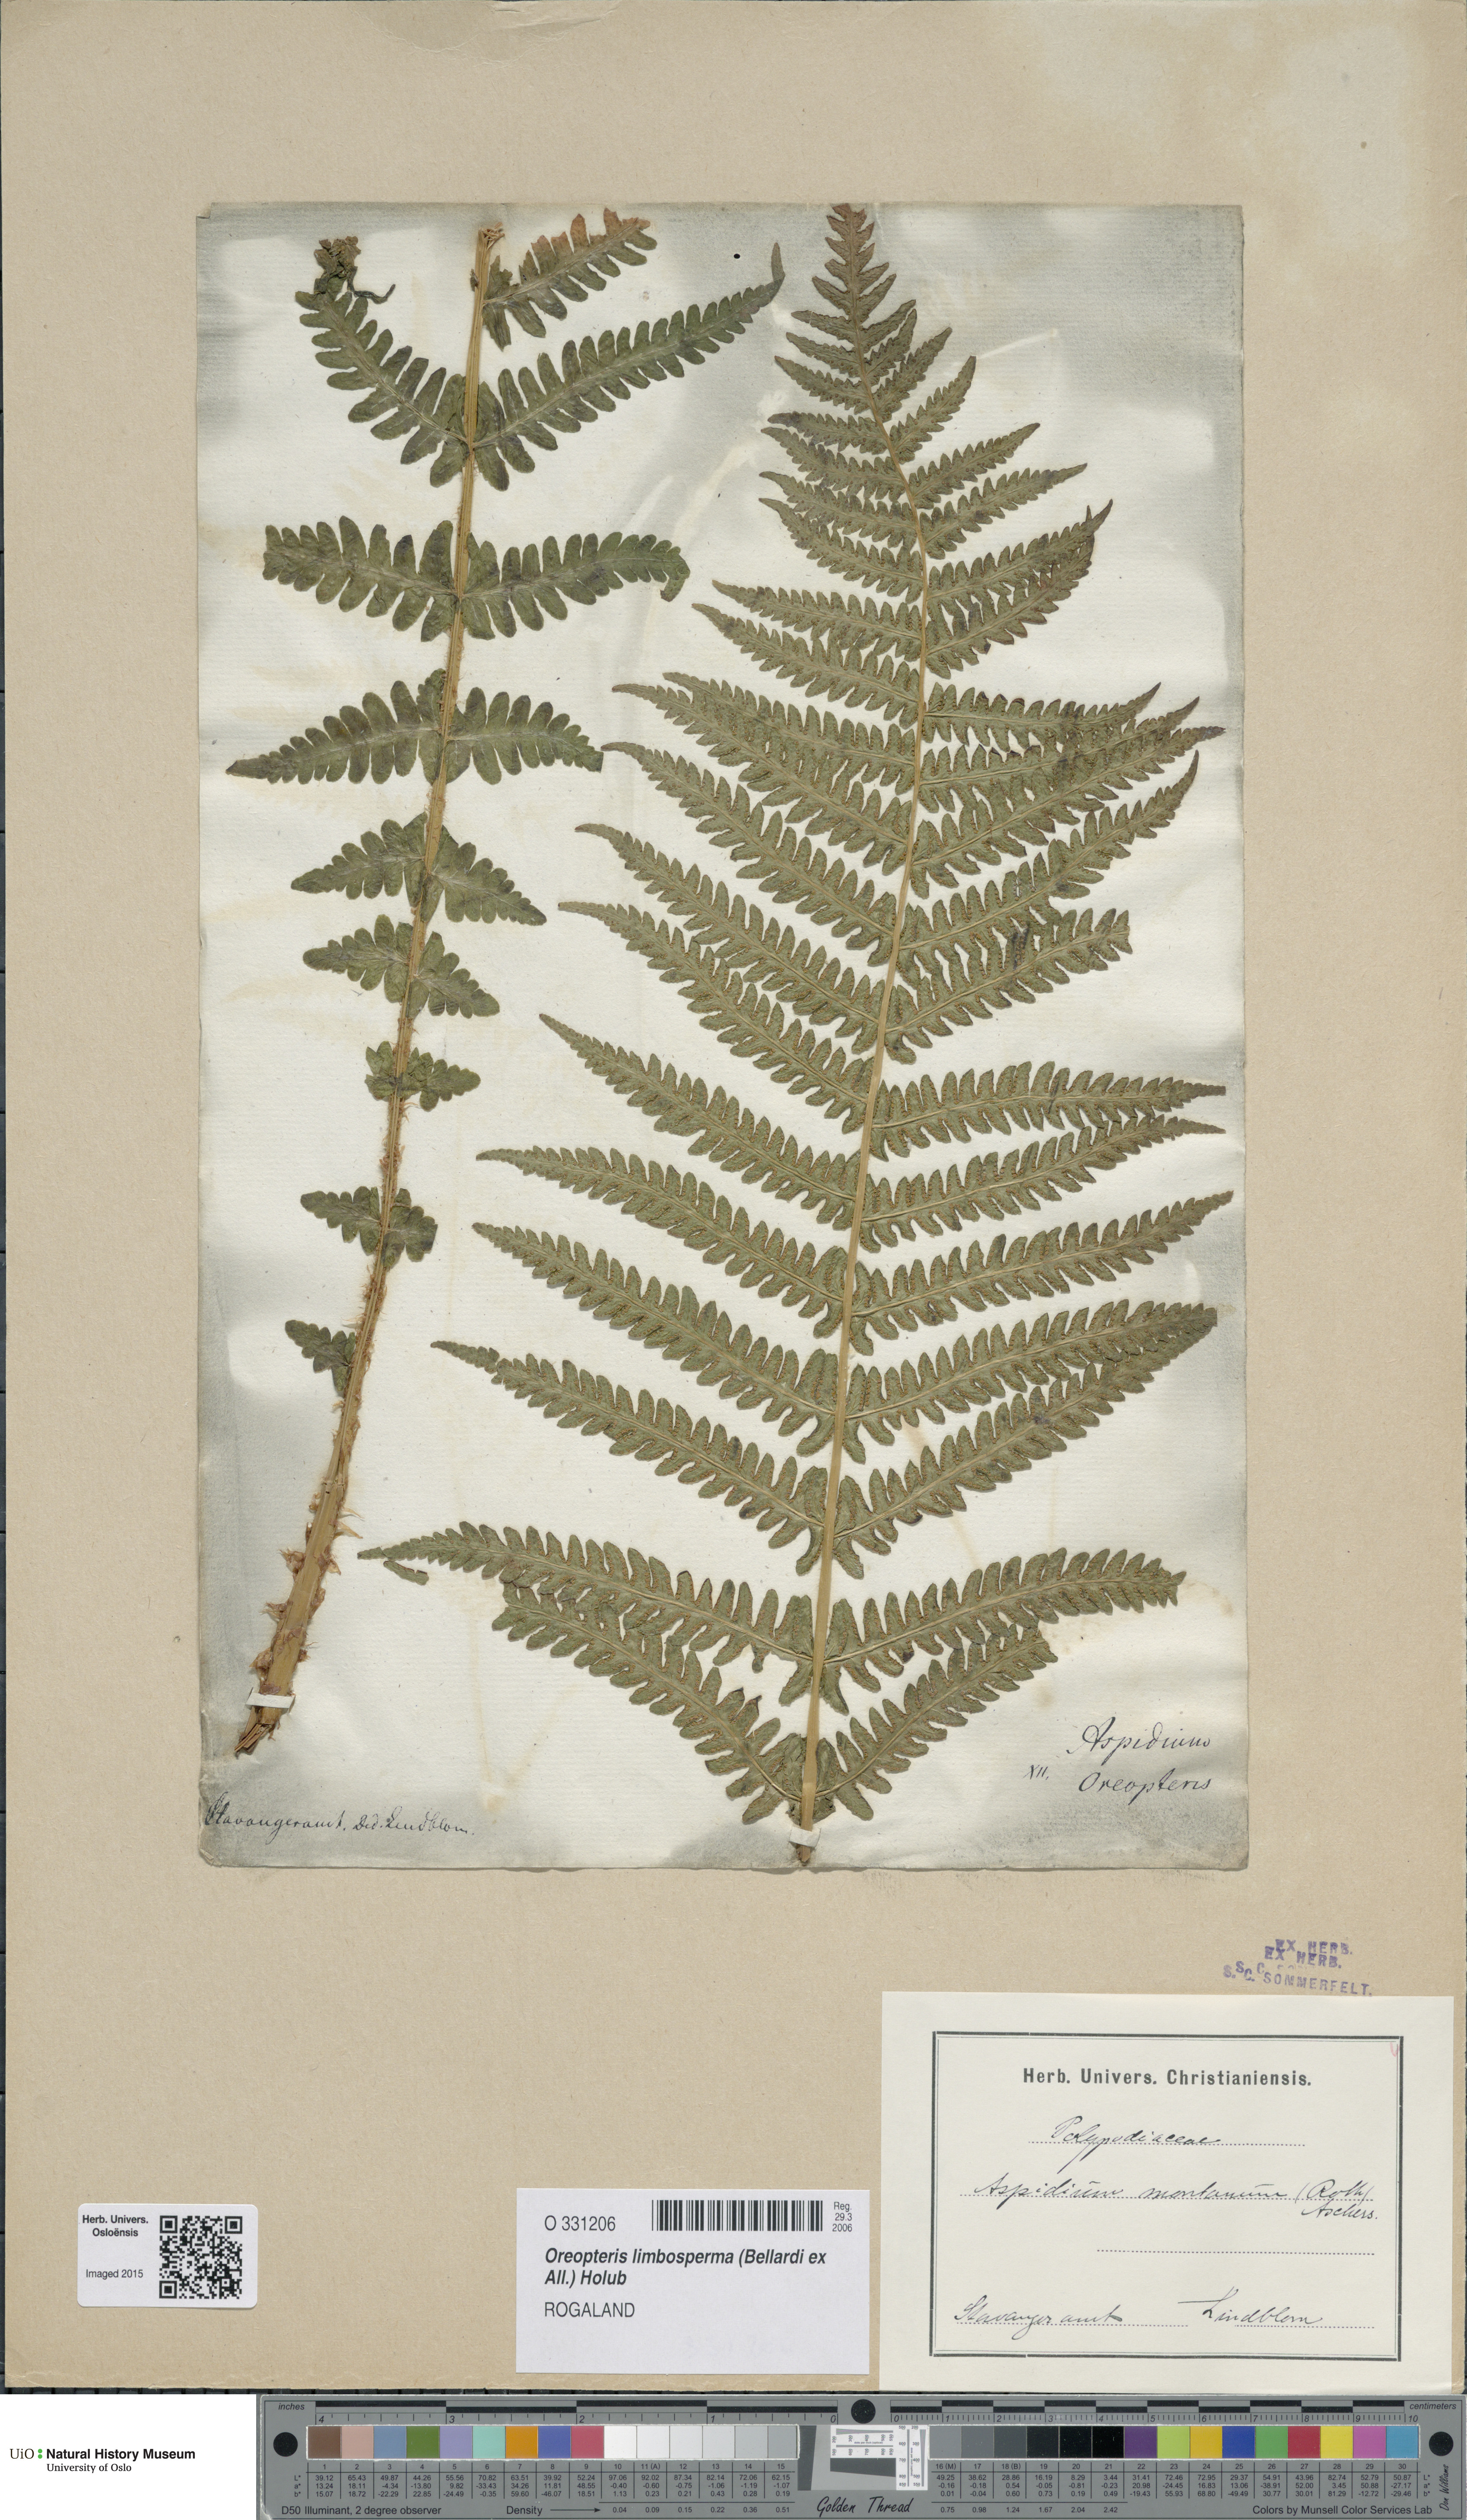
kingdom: Plantae
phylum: Tracheophyta
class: Polypodiopsida
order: Polypodiales
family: Thelypteridaceae
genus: Oreopteris
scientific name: Oreopteris limbosperma
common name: Lemon-scented fern
